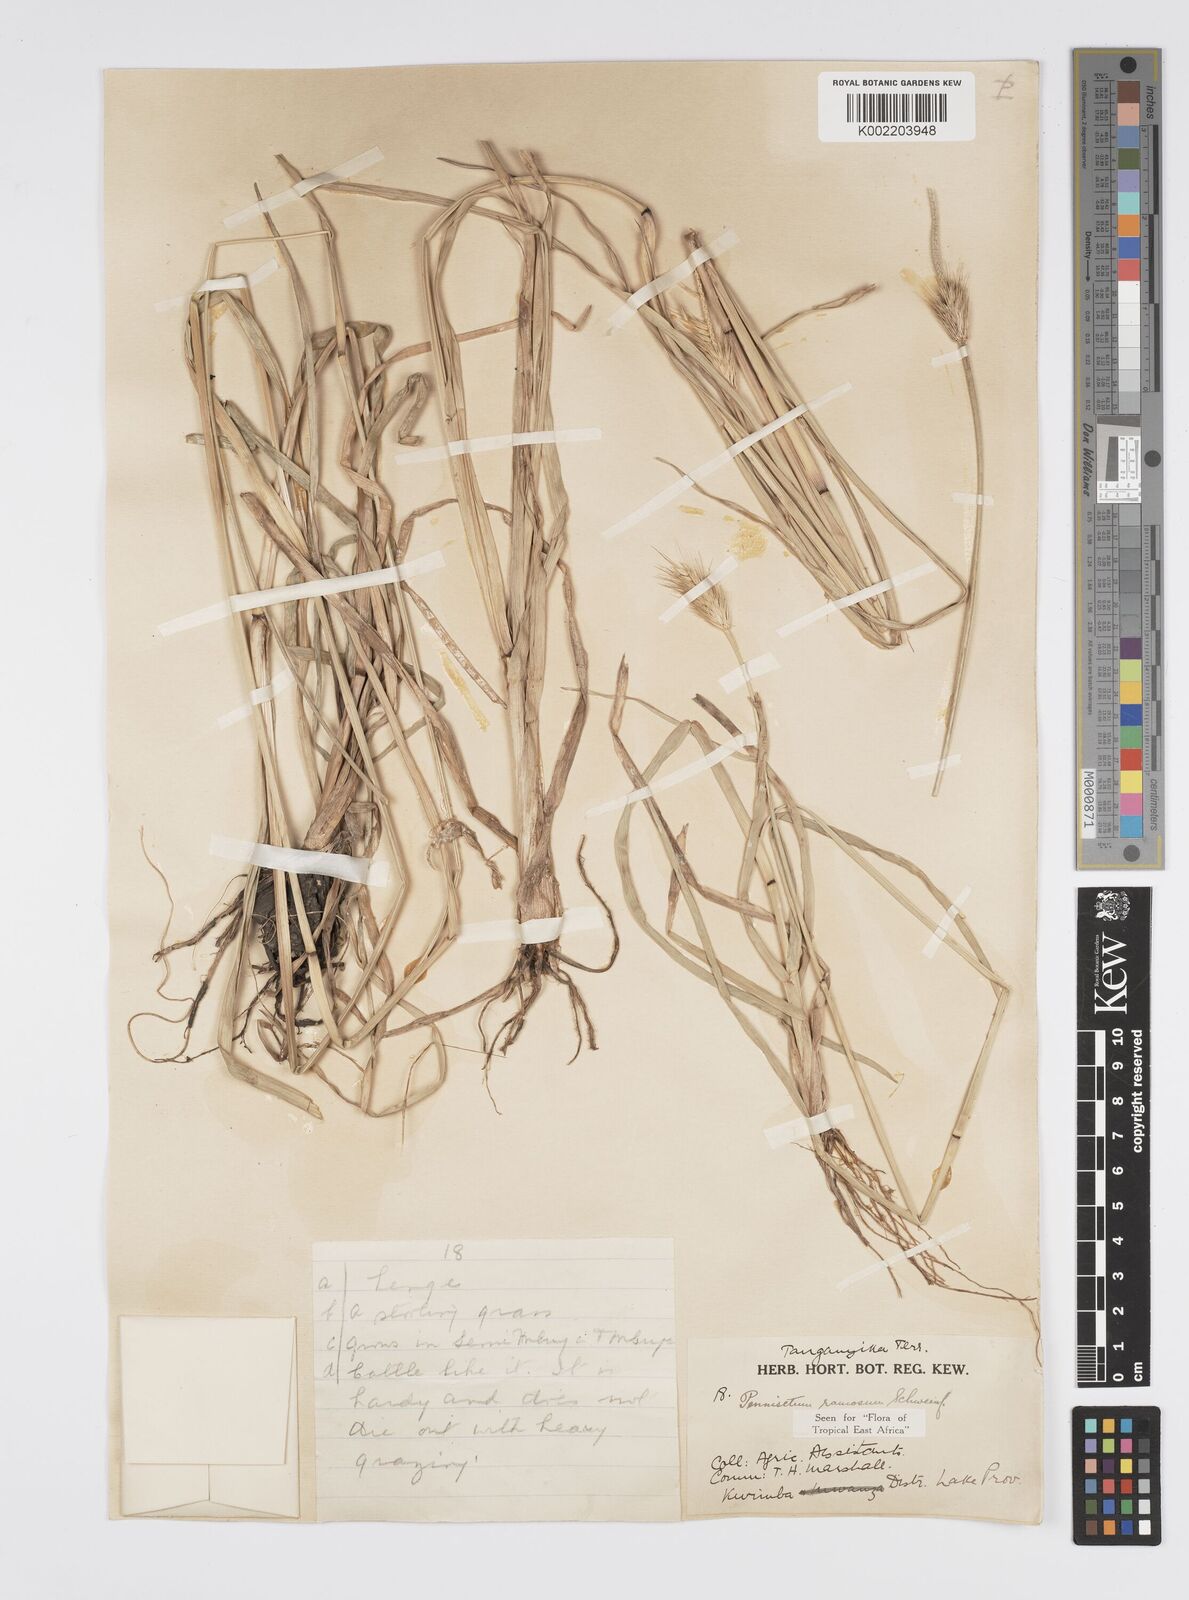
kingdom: Plantae
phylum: Tracheophyta
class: Liliopsida
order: Poales
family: Poaceae
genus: Cenchrus
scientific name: Cenchrus ramosus
